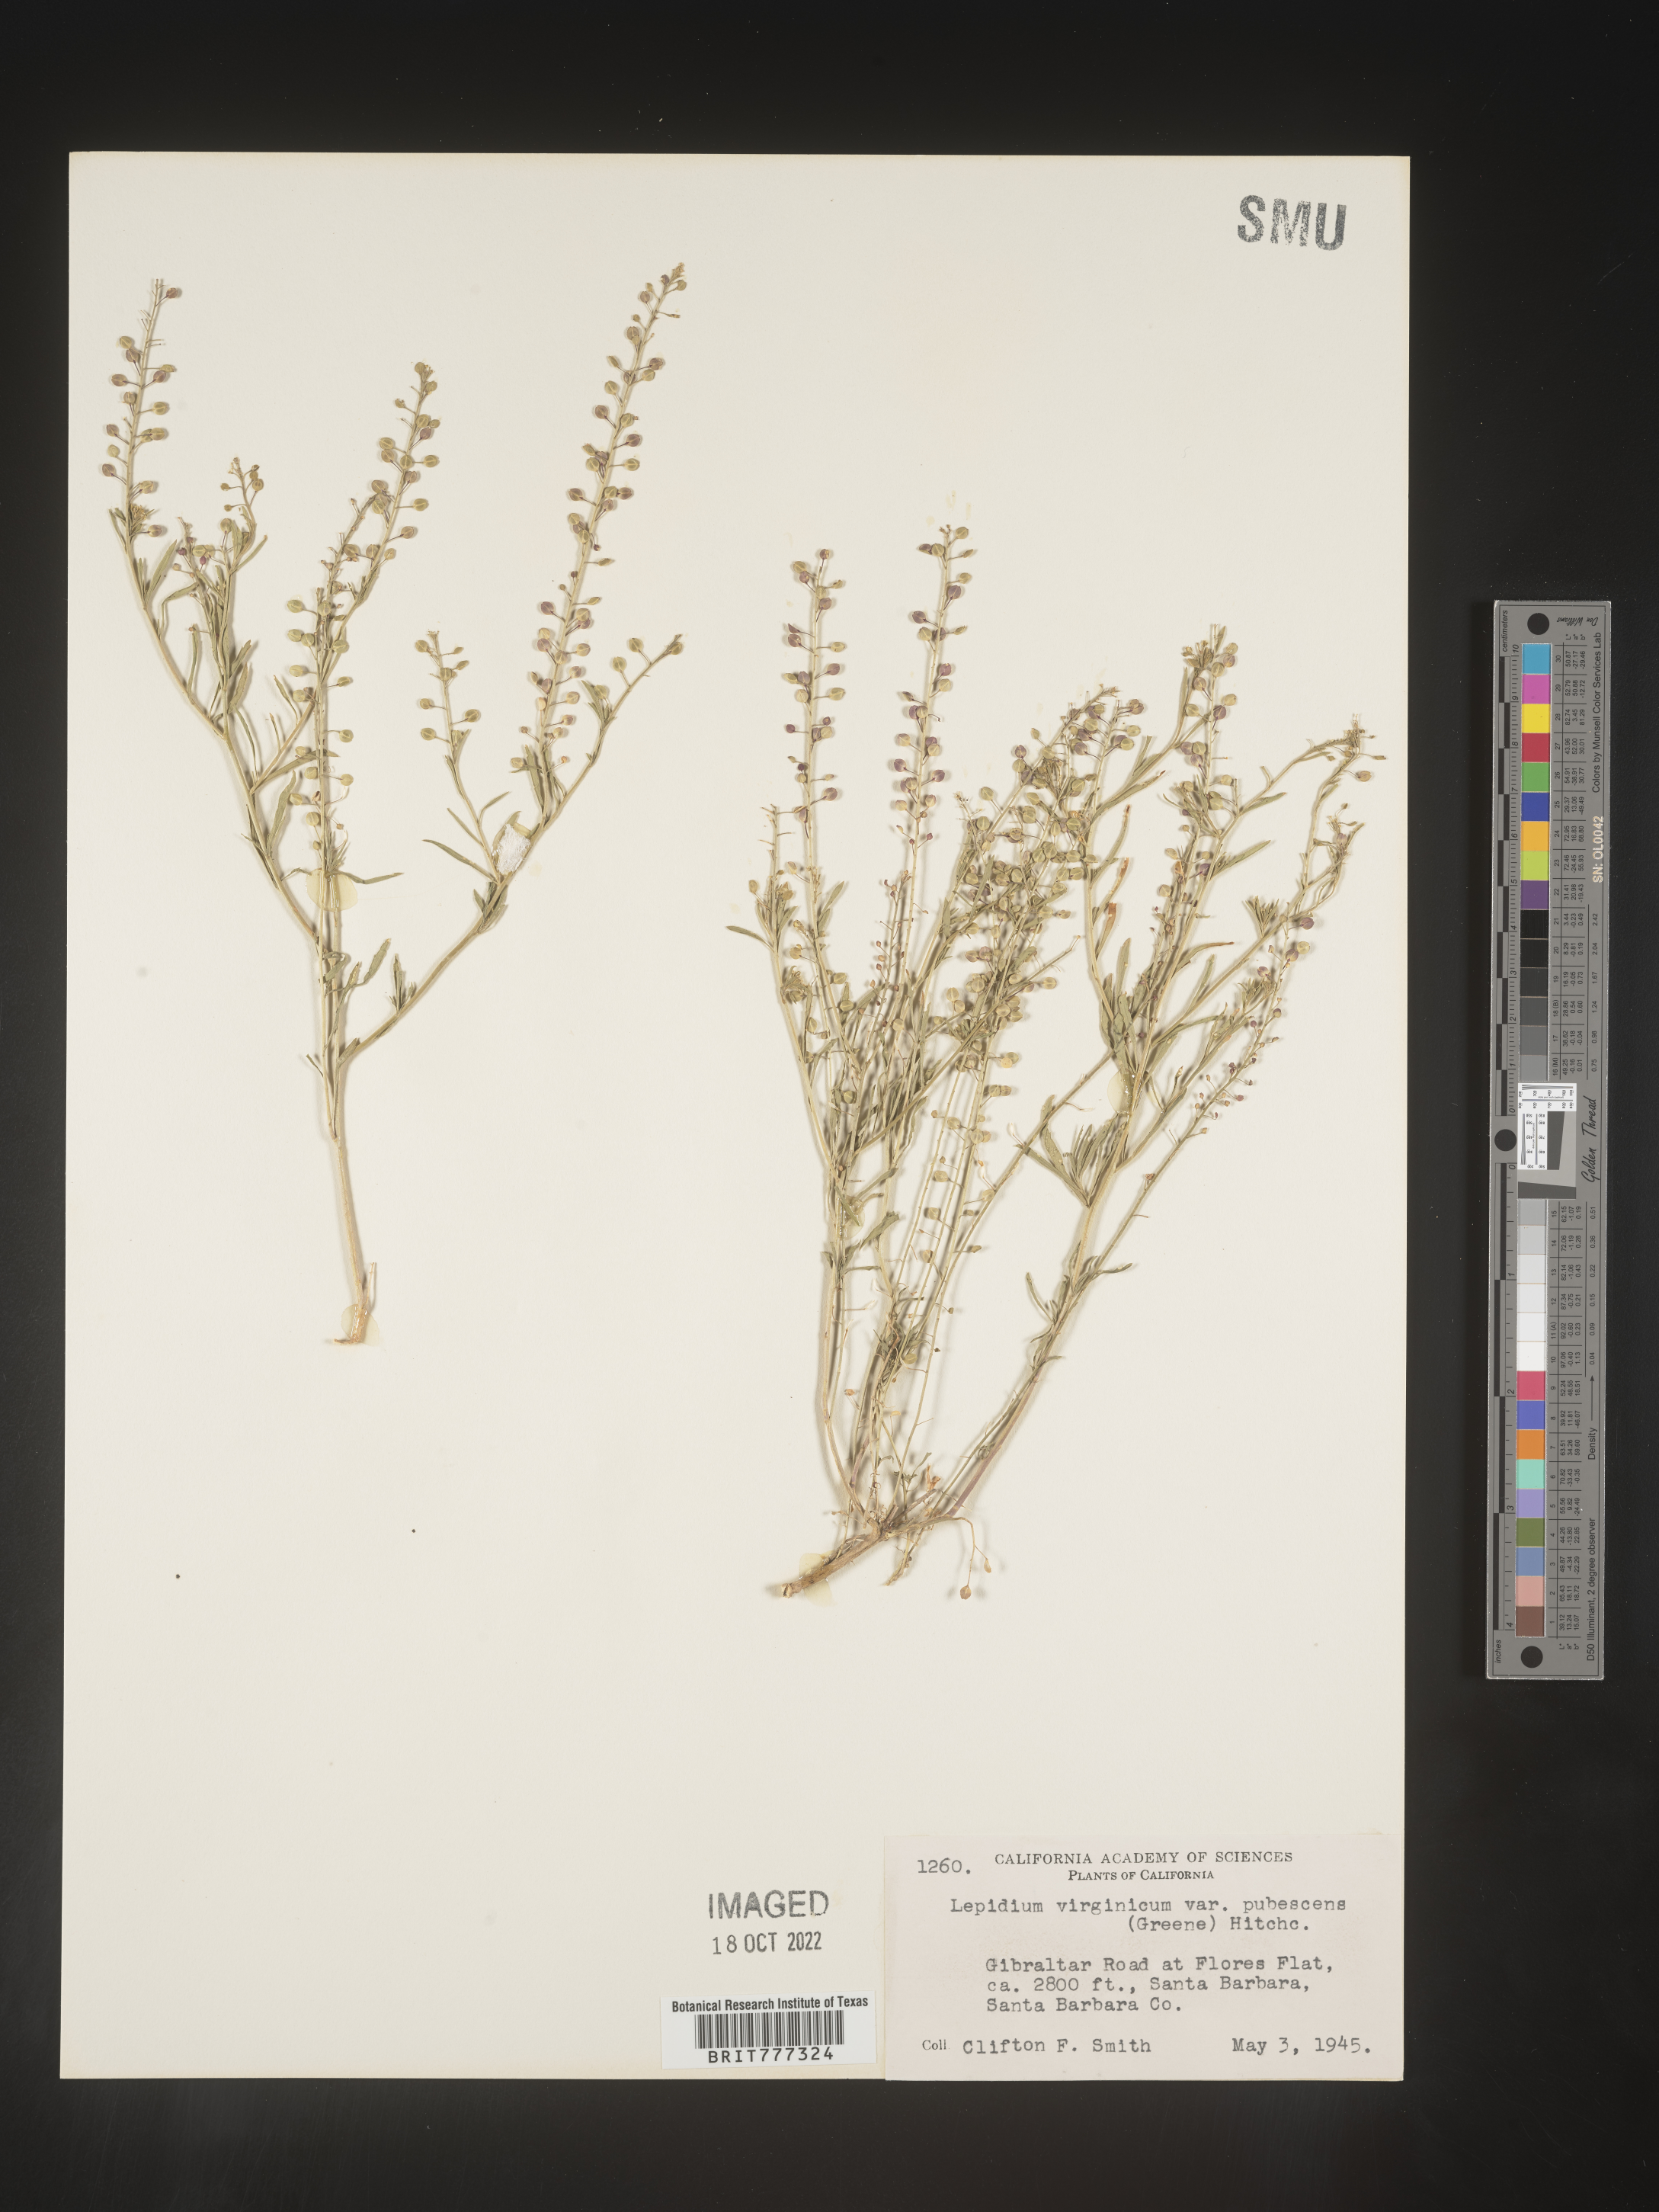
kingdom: Plantae
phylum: Tracheophyta
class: Magnoliopsida
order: Brassicales
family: Brassicaceae
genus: Lepidium
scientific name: Lepidium virginicum
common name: Least pepperwort
